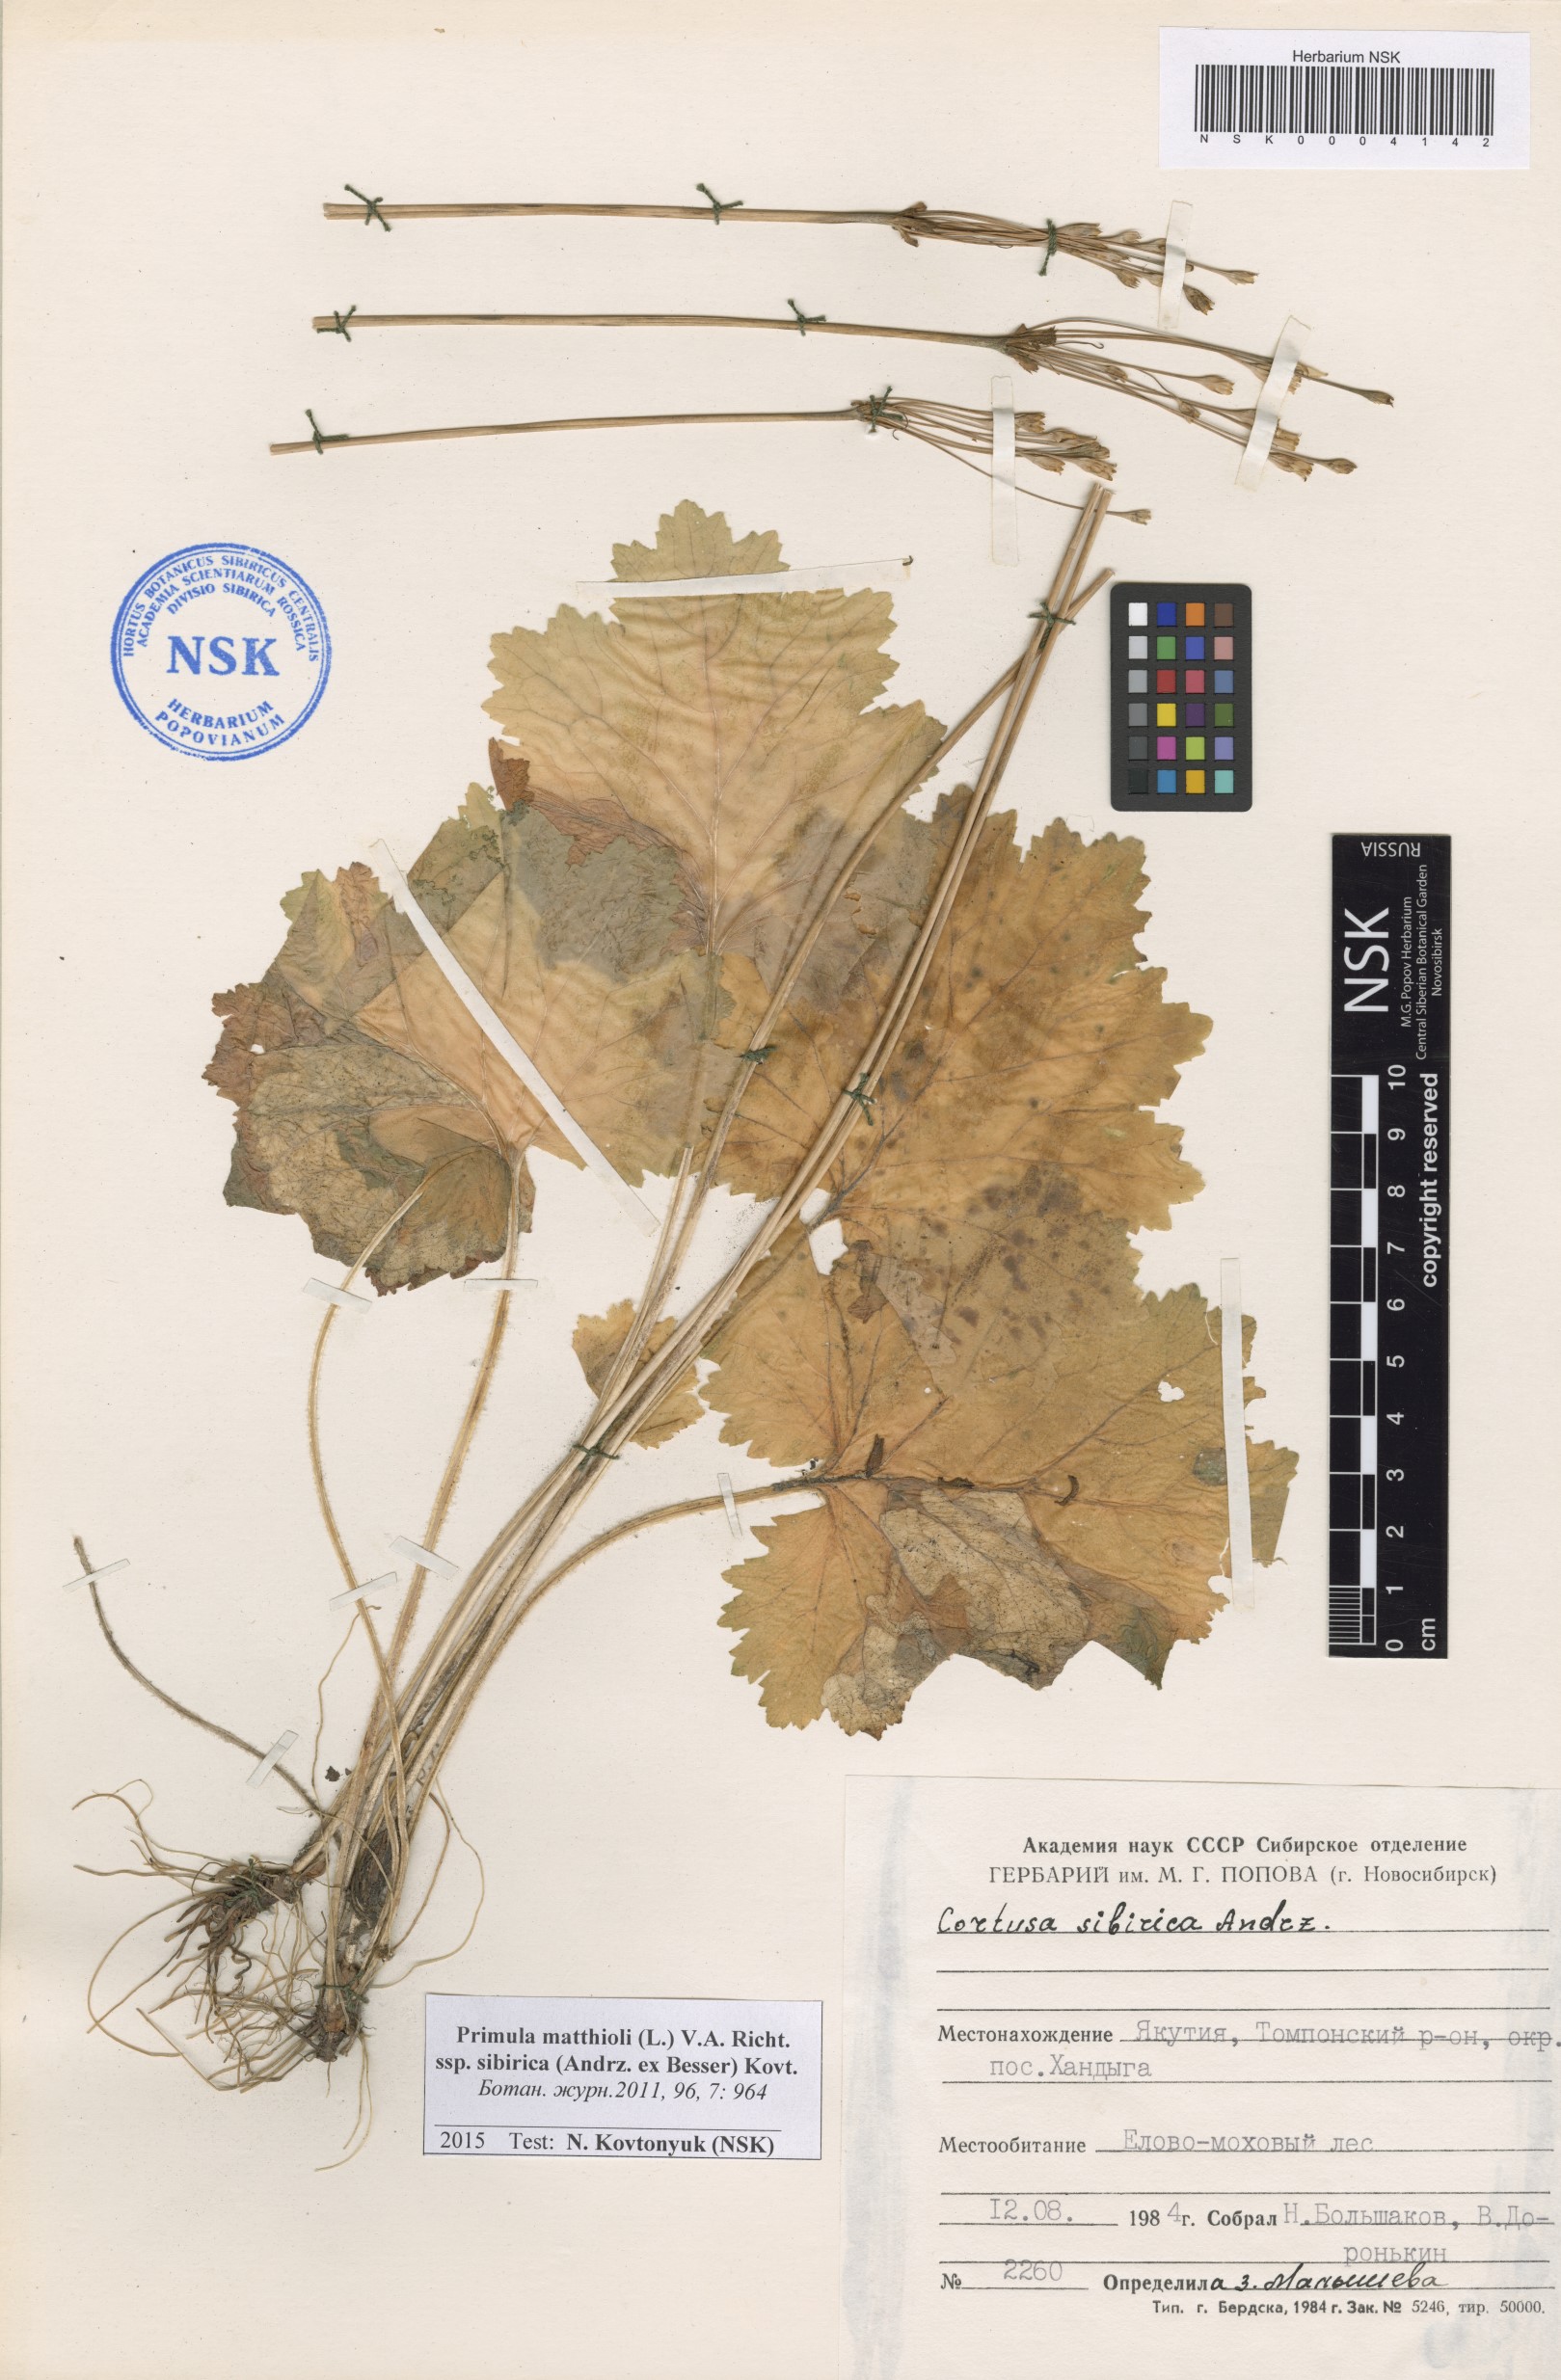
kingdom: Plantae
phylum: Tracheophyta
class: Magnoliopsida
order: Ericales
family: Primulaceae
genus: Primula
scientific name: Primula matthioli
